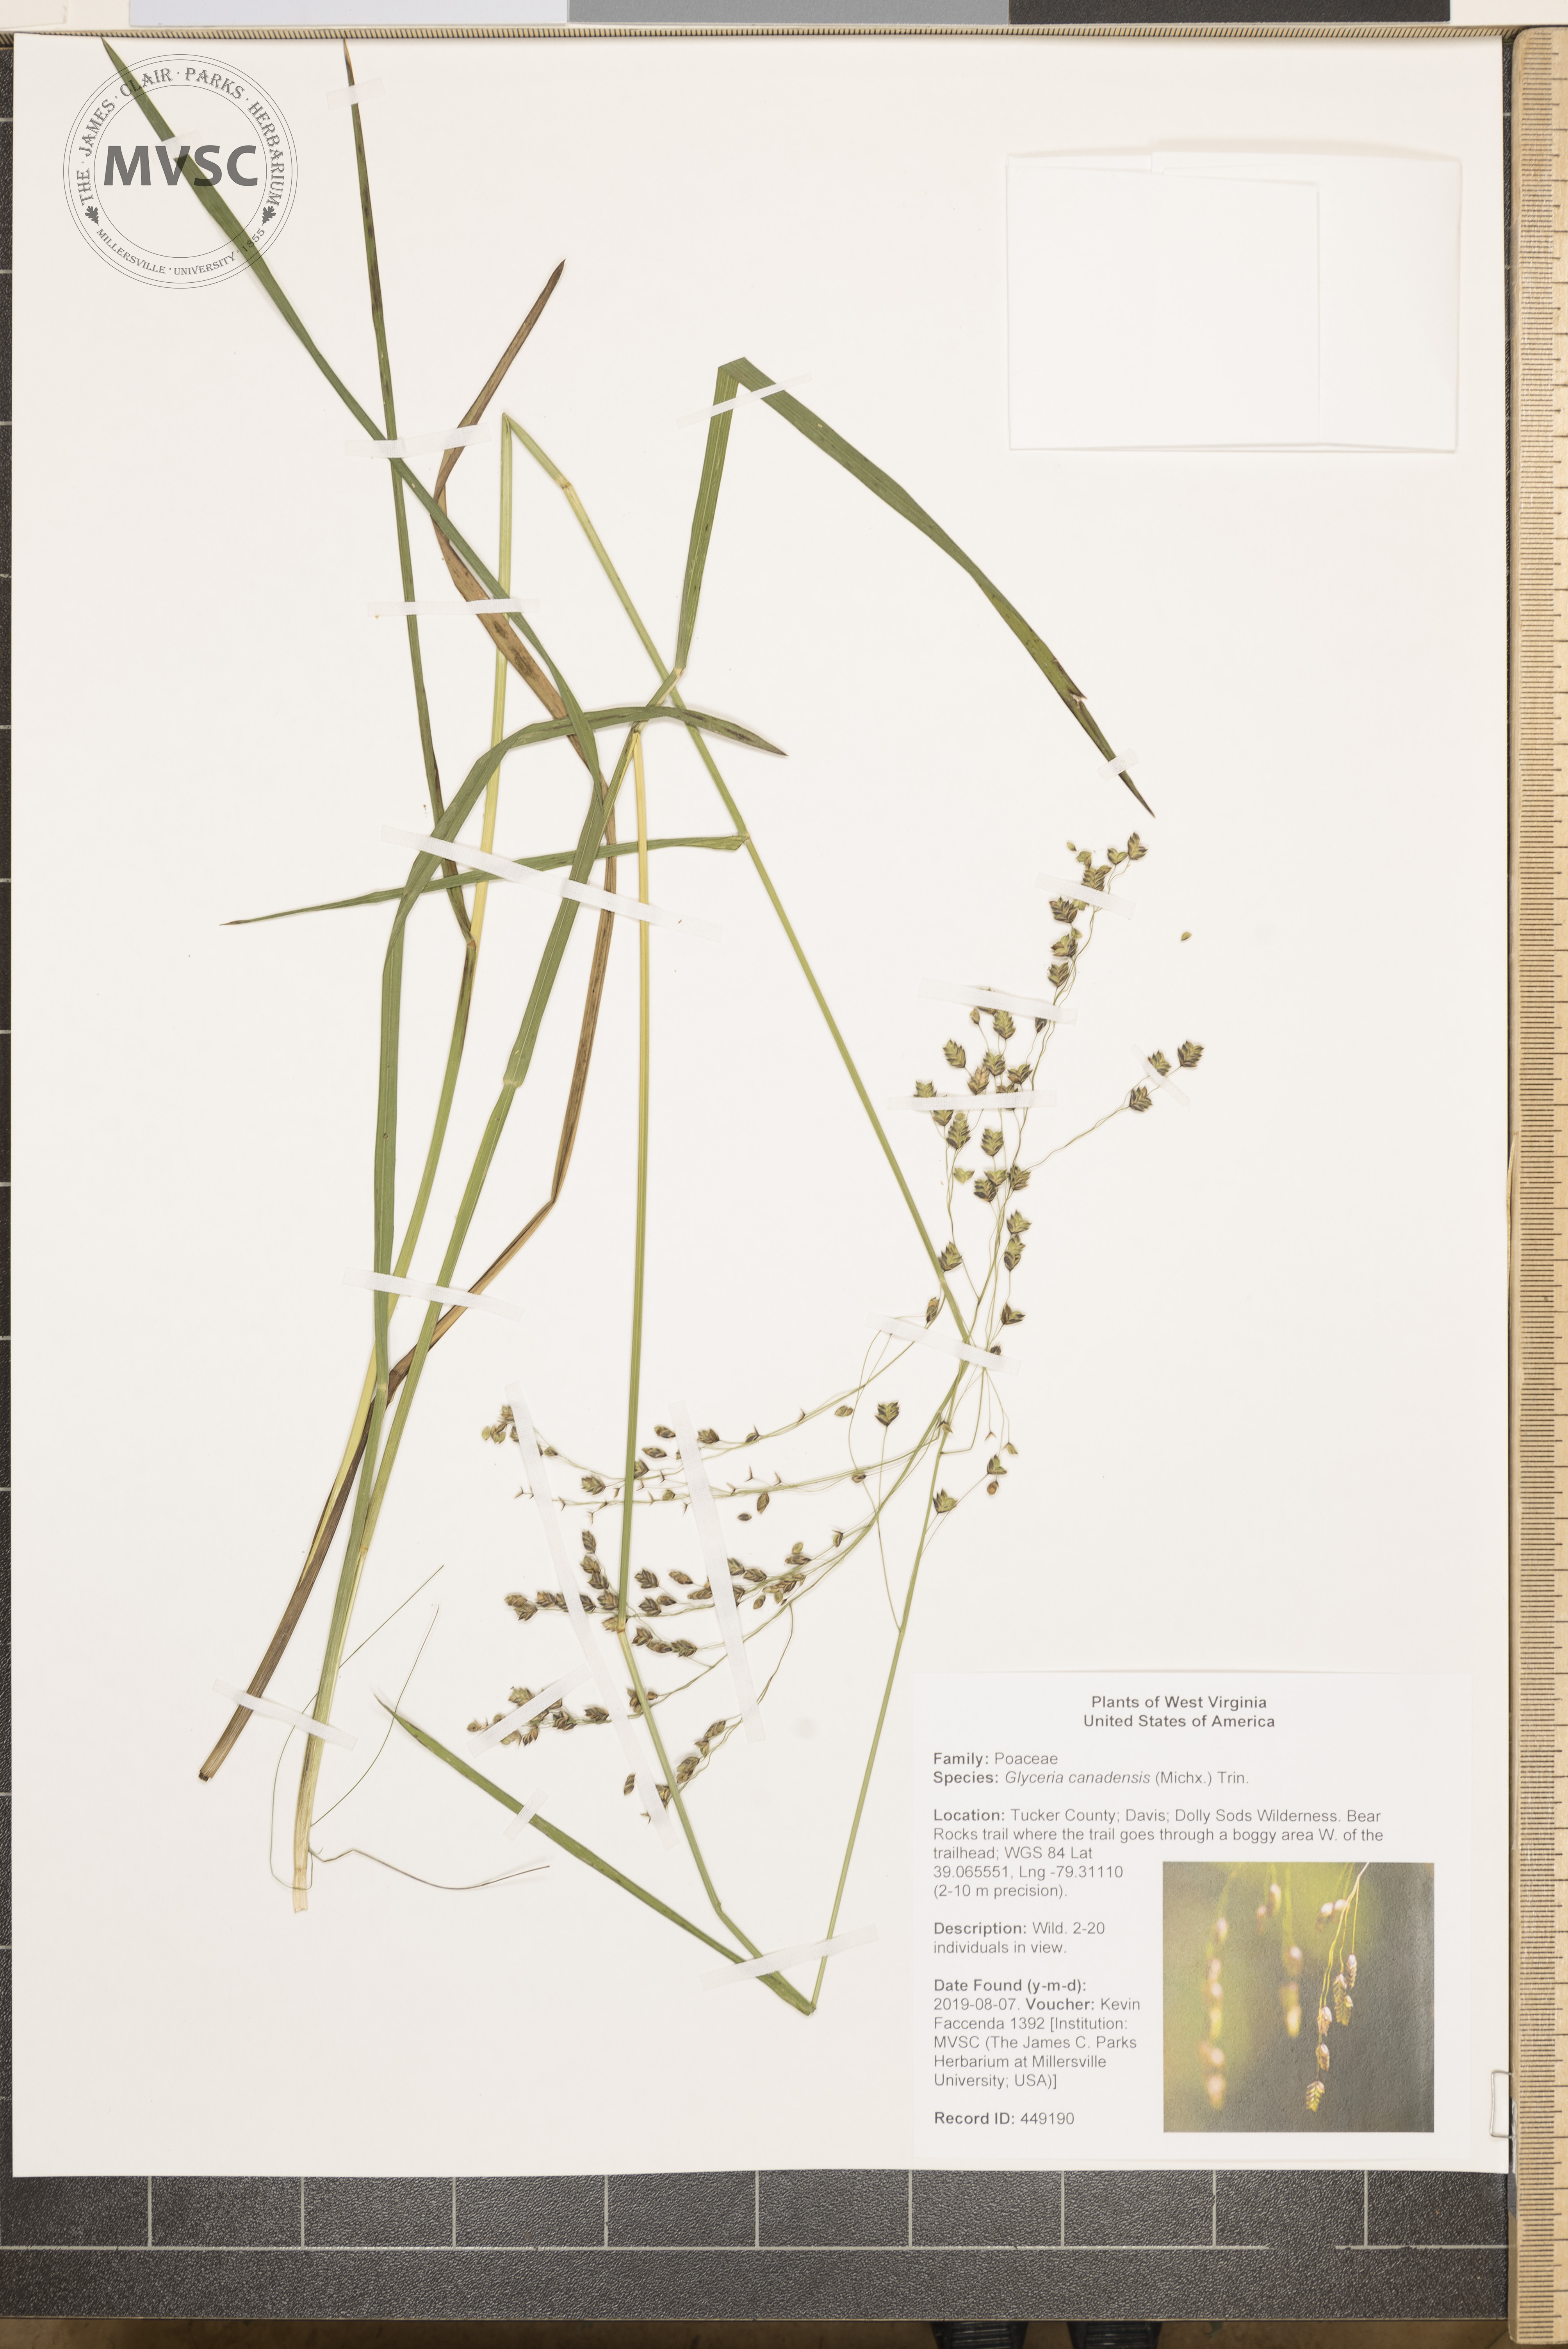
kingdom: Plantae
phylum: Tracheophyta
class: Liliopsida
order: Poales
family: Poaceae
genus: Glyceria
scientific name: Glyceria canadensis
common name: Canada mannagrass
